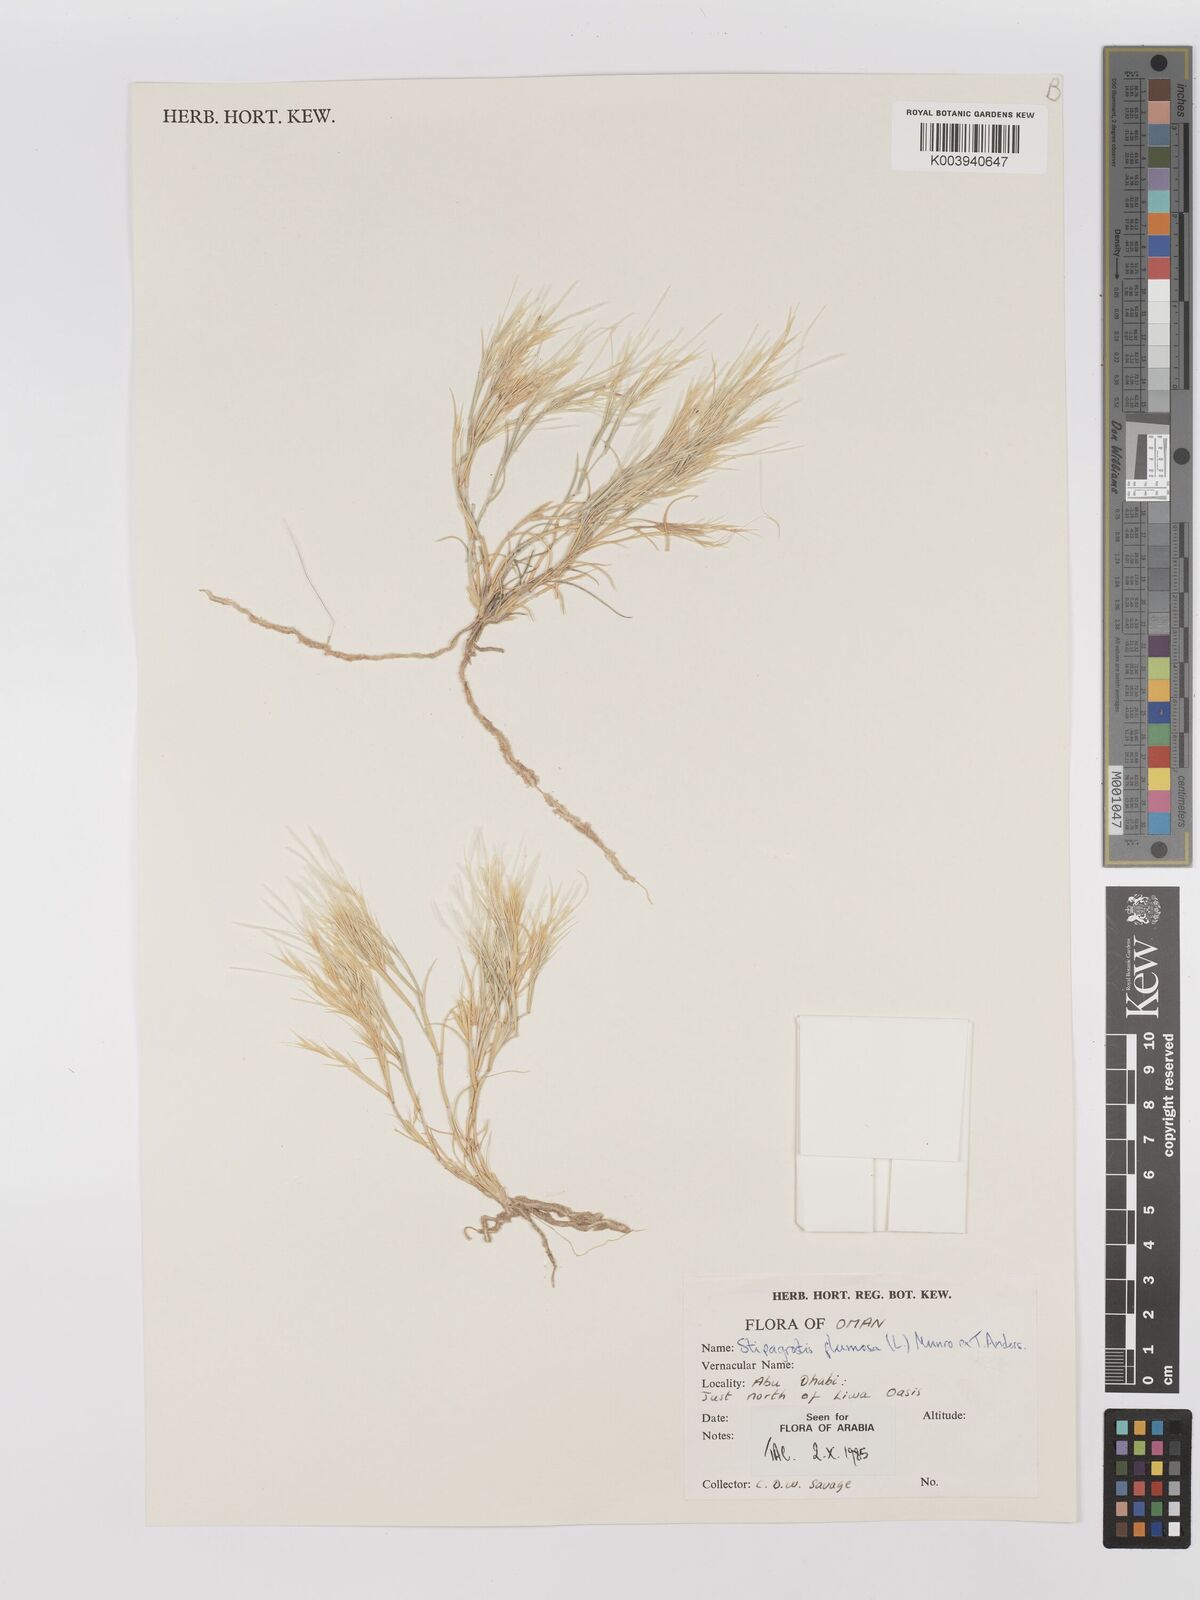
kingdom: Plantae
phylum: Tracheophyta
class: Liliopsida
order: Poales
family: Poaceae
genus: Stipagrostis
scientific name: Stipagrostis plumosa
